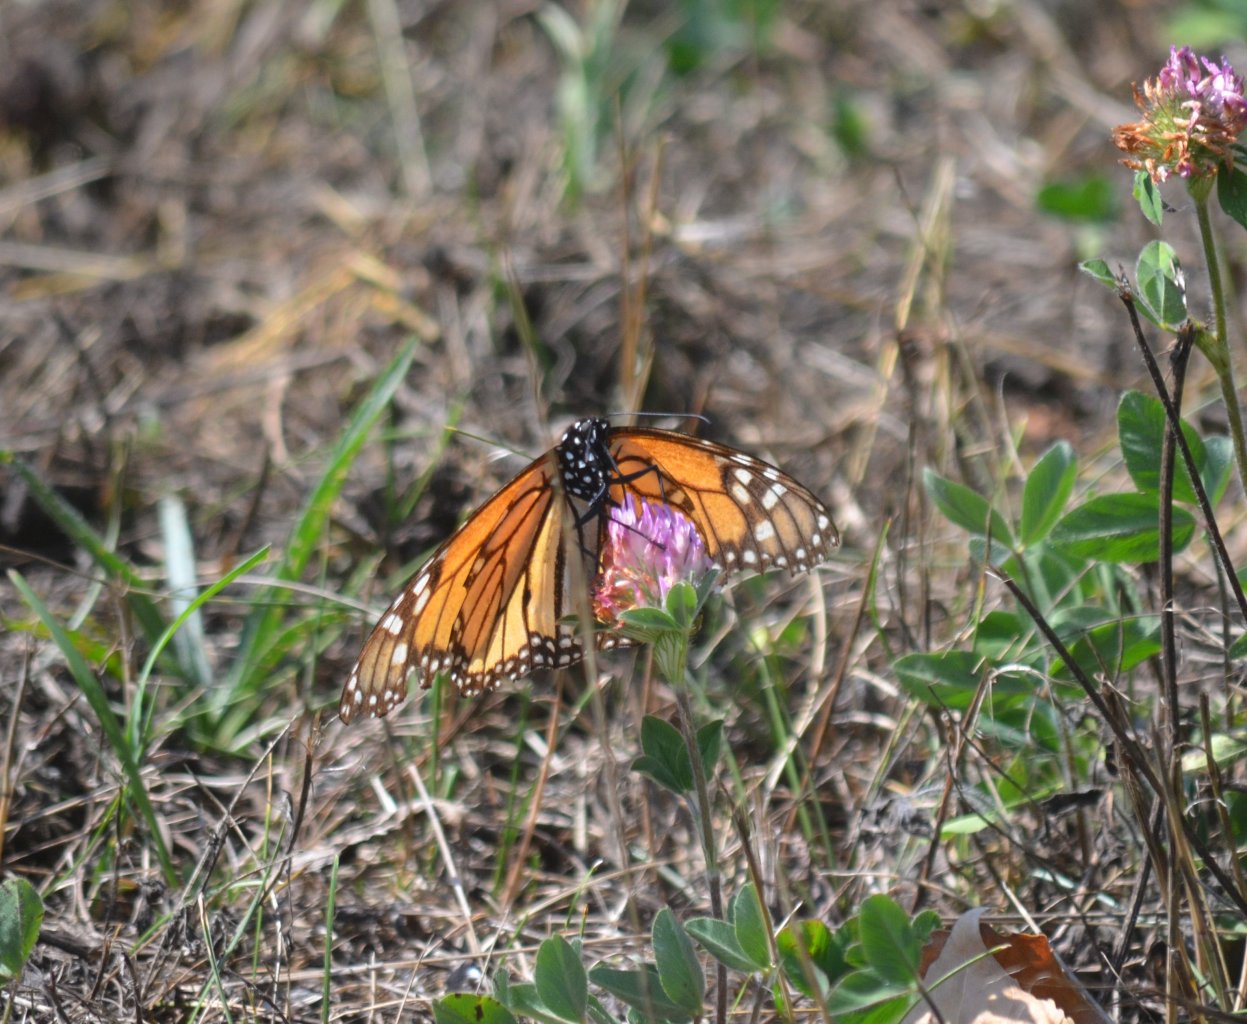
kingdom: Animalia
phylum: Arthropoda
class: Insecta
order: Lepidoptera
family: Nymphalidae
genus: Danaus
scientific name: Danaus plexippus
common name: Monarch
